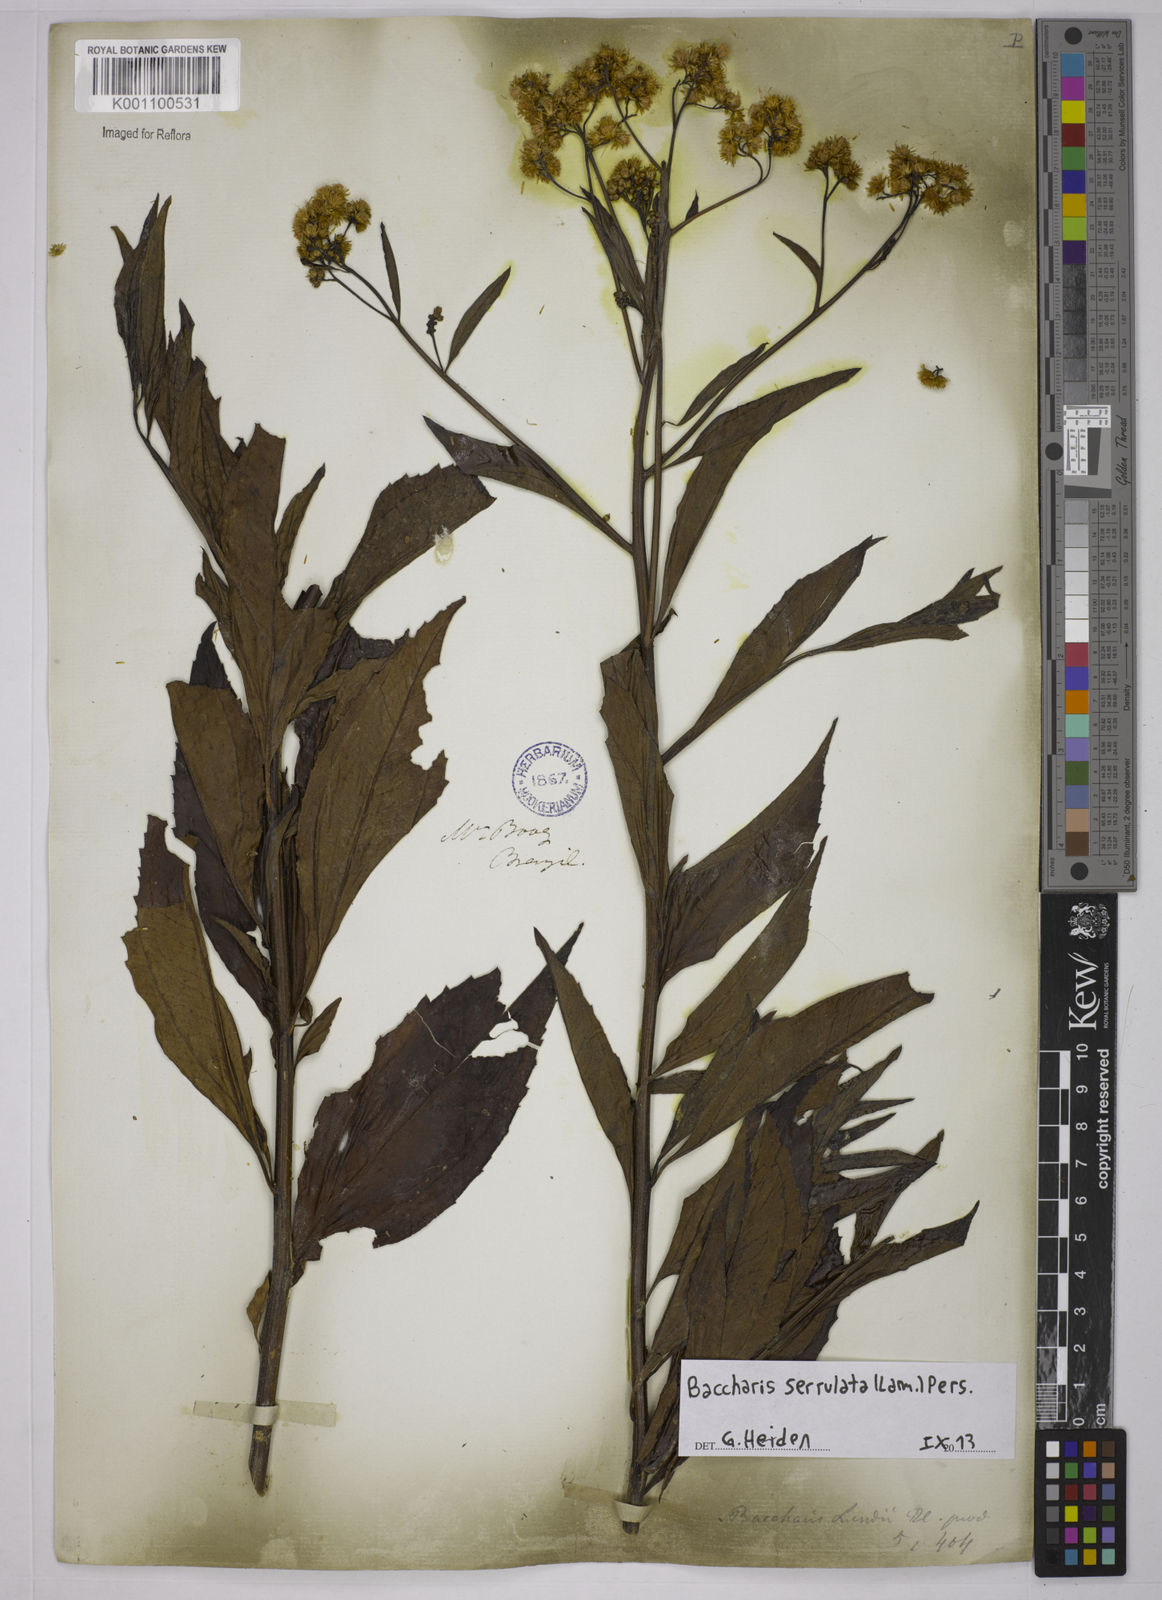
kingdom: Plantae
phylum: Tracheophyta
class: Magnoliopsida
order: Asterales
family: Asteraceae
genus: Baccharis
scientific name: Baccharis serrulata
